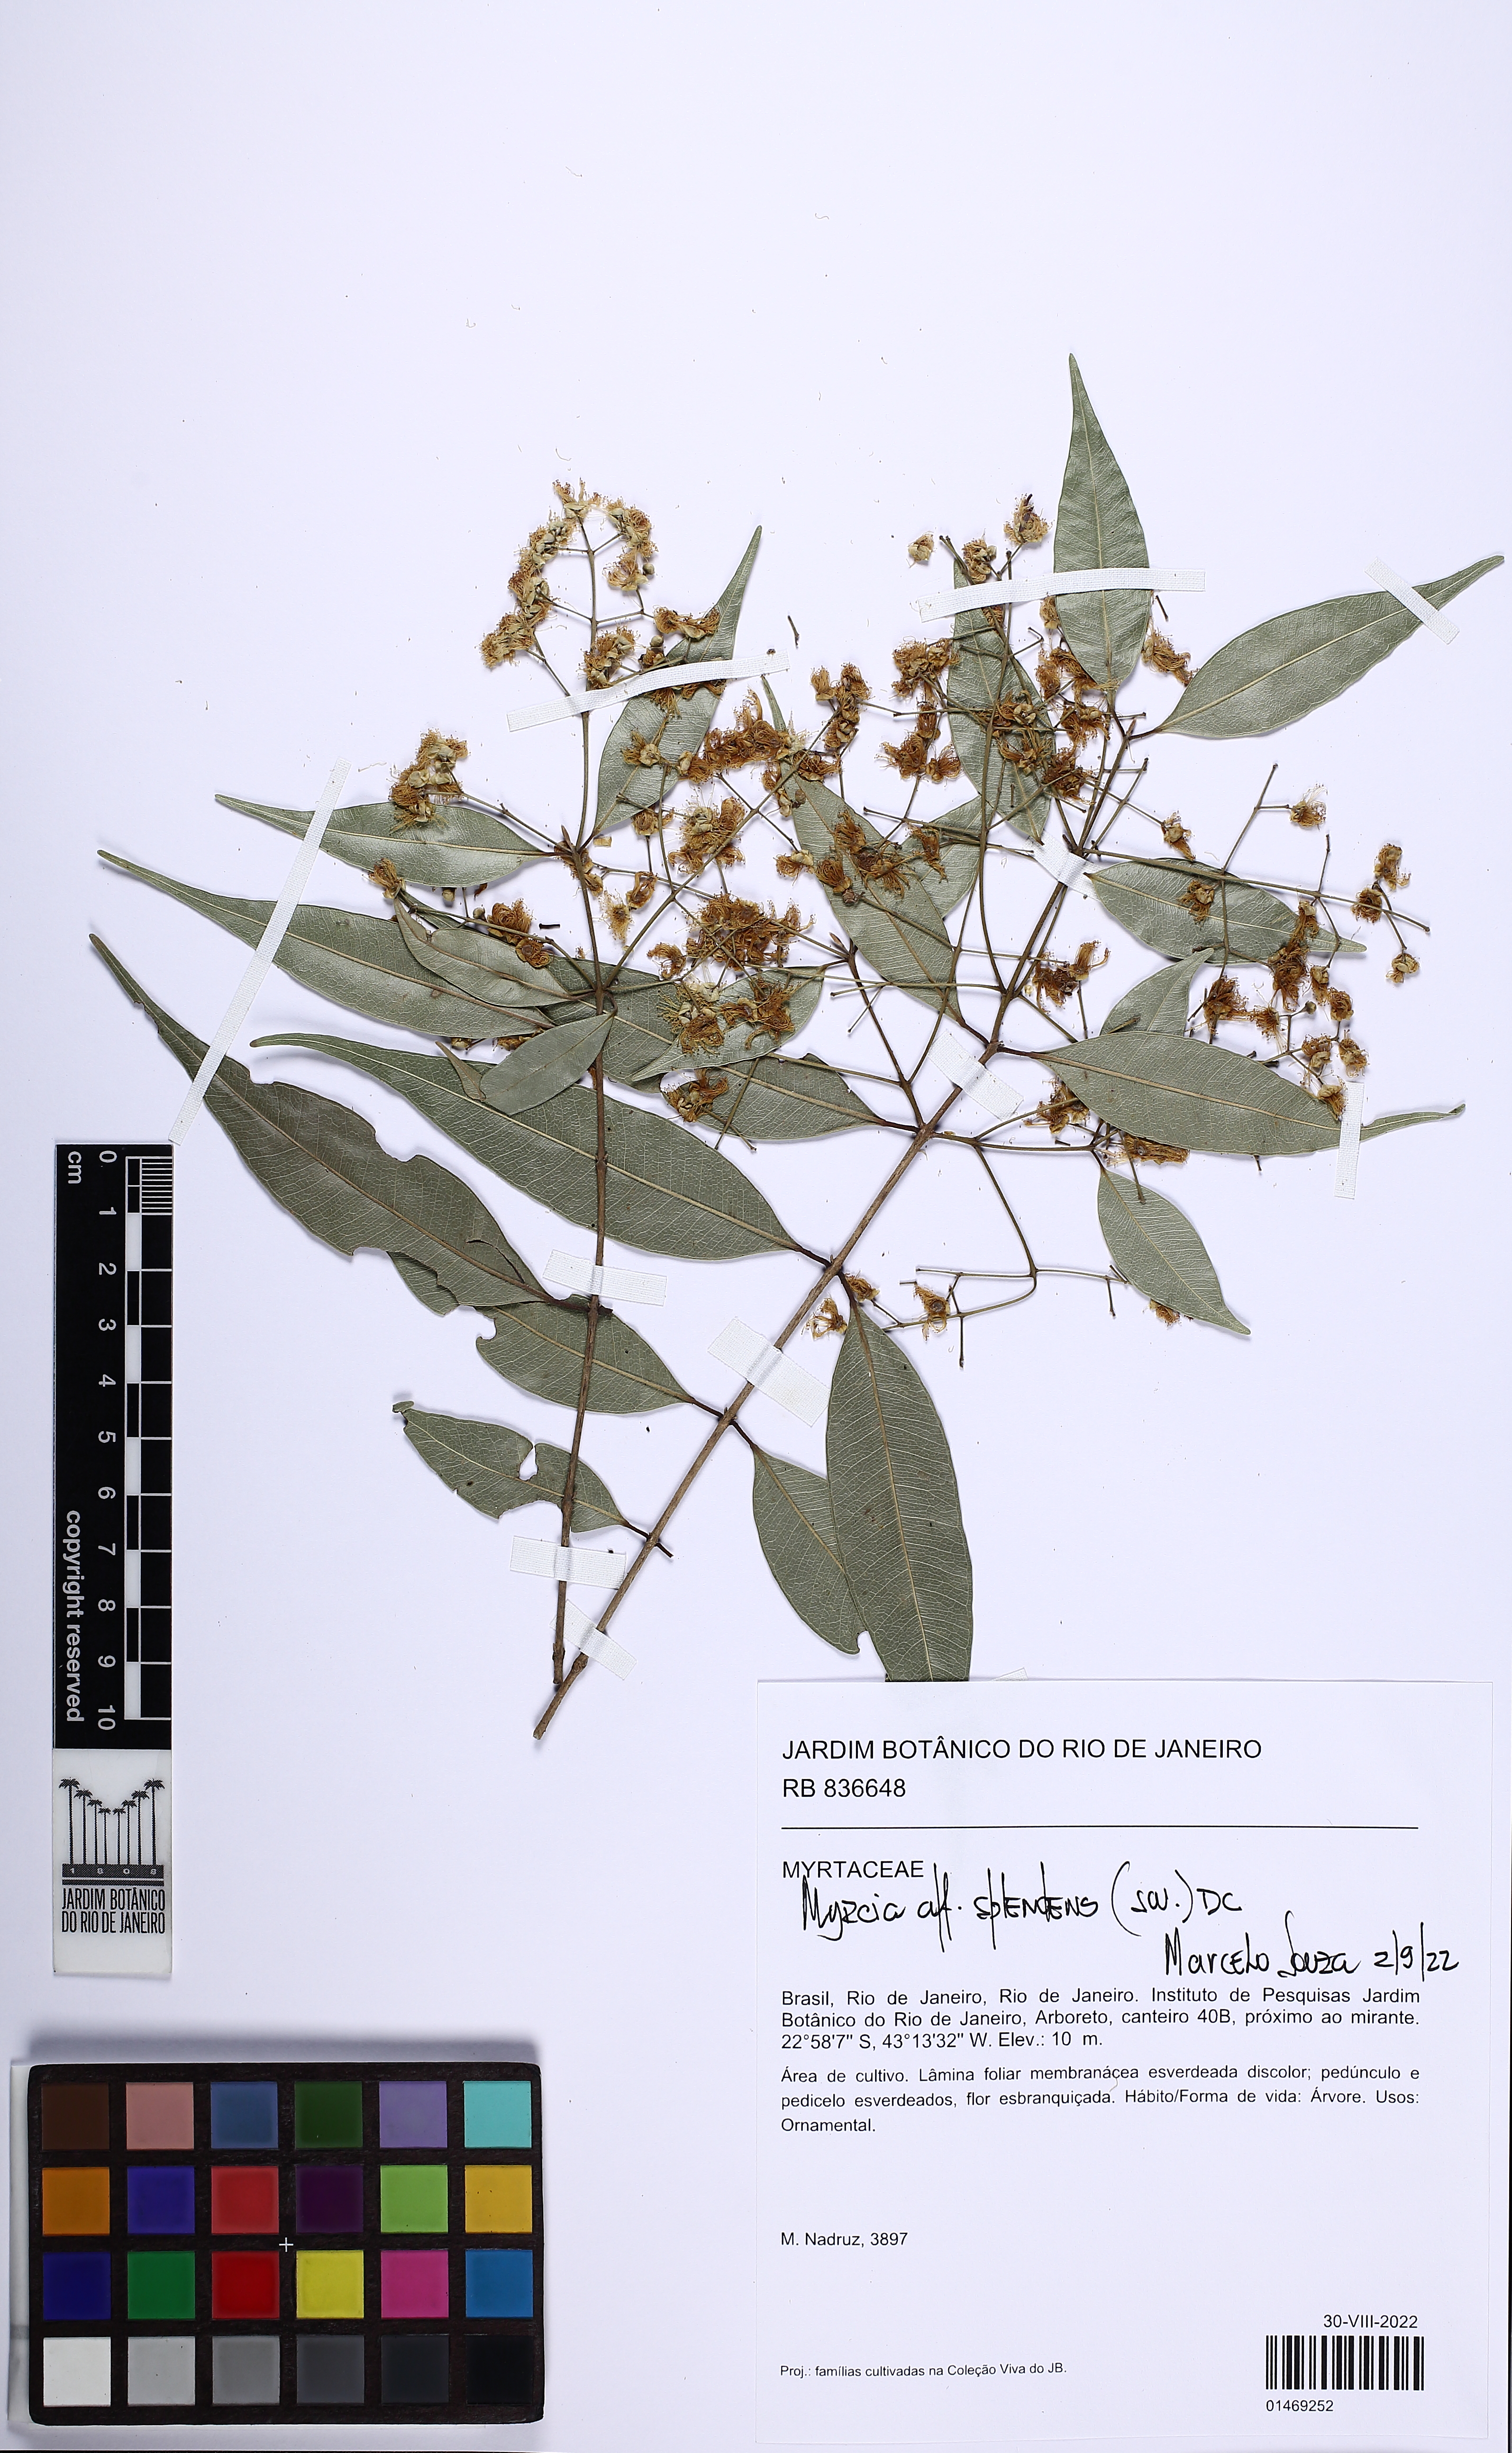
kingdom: Plantae
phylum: Tracheophyta
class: Magnoliopsida
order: Myrtales
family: Myrtaceae
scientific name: Myrtaceae
